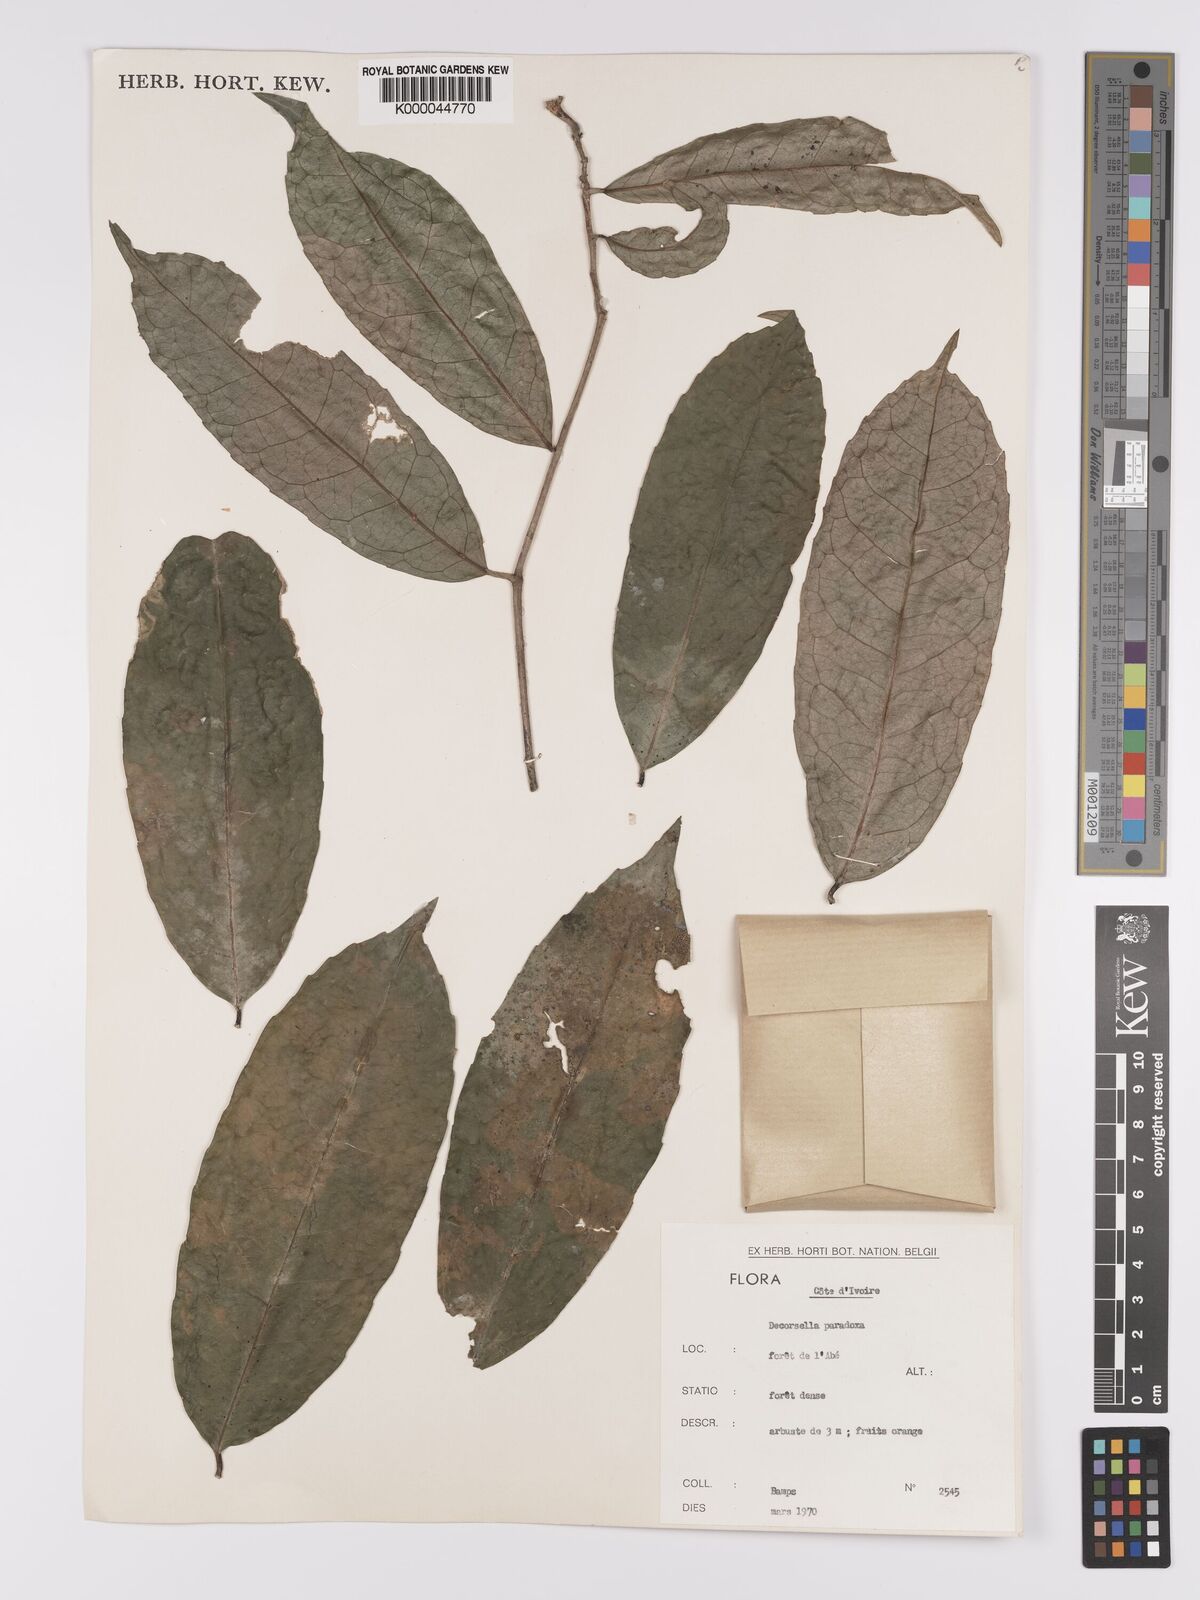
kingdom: Plantae
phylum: Tracheophyta
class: Magnoliopsida
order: Malpighiales
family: Violaceae
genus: Decorsella
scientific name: Decorsella paradoxa
